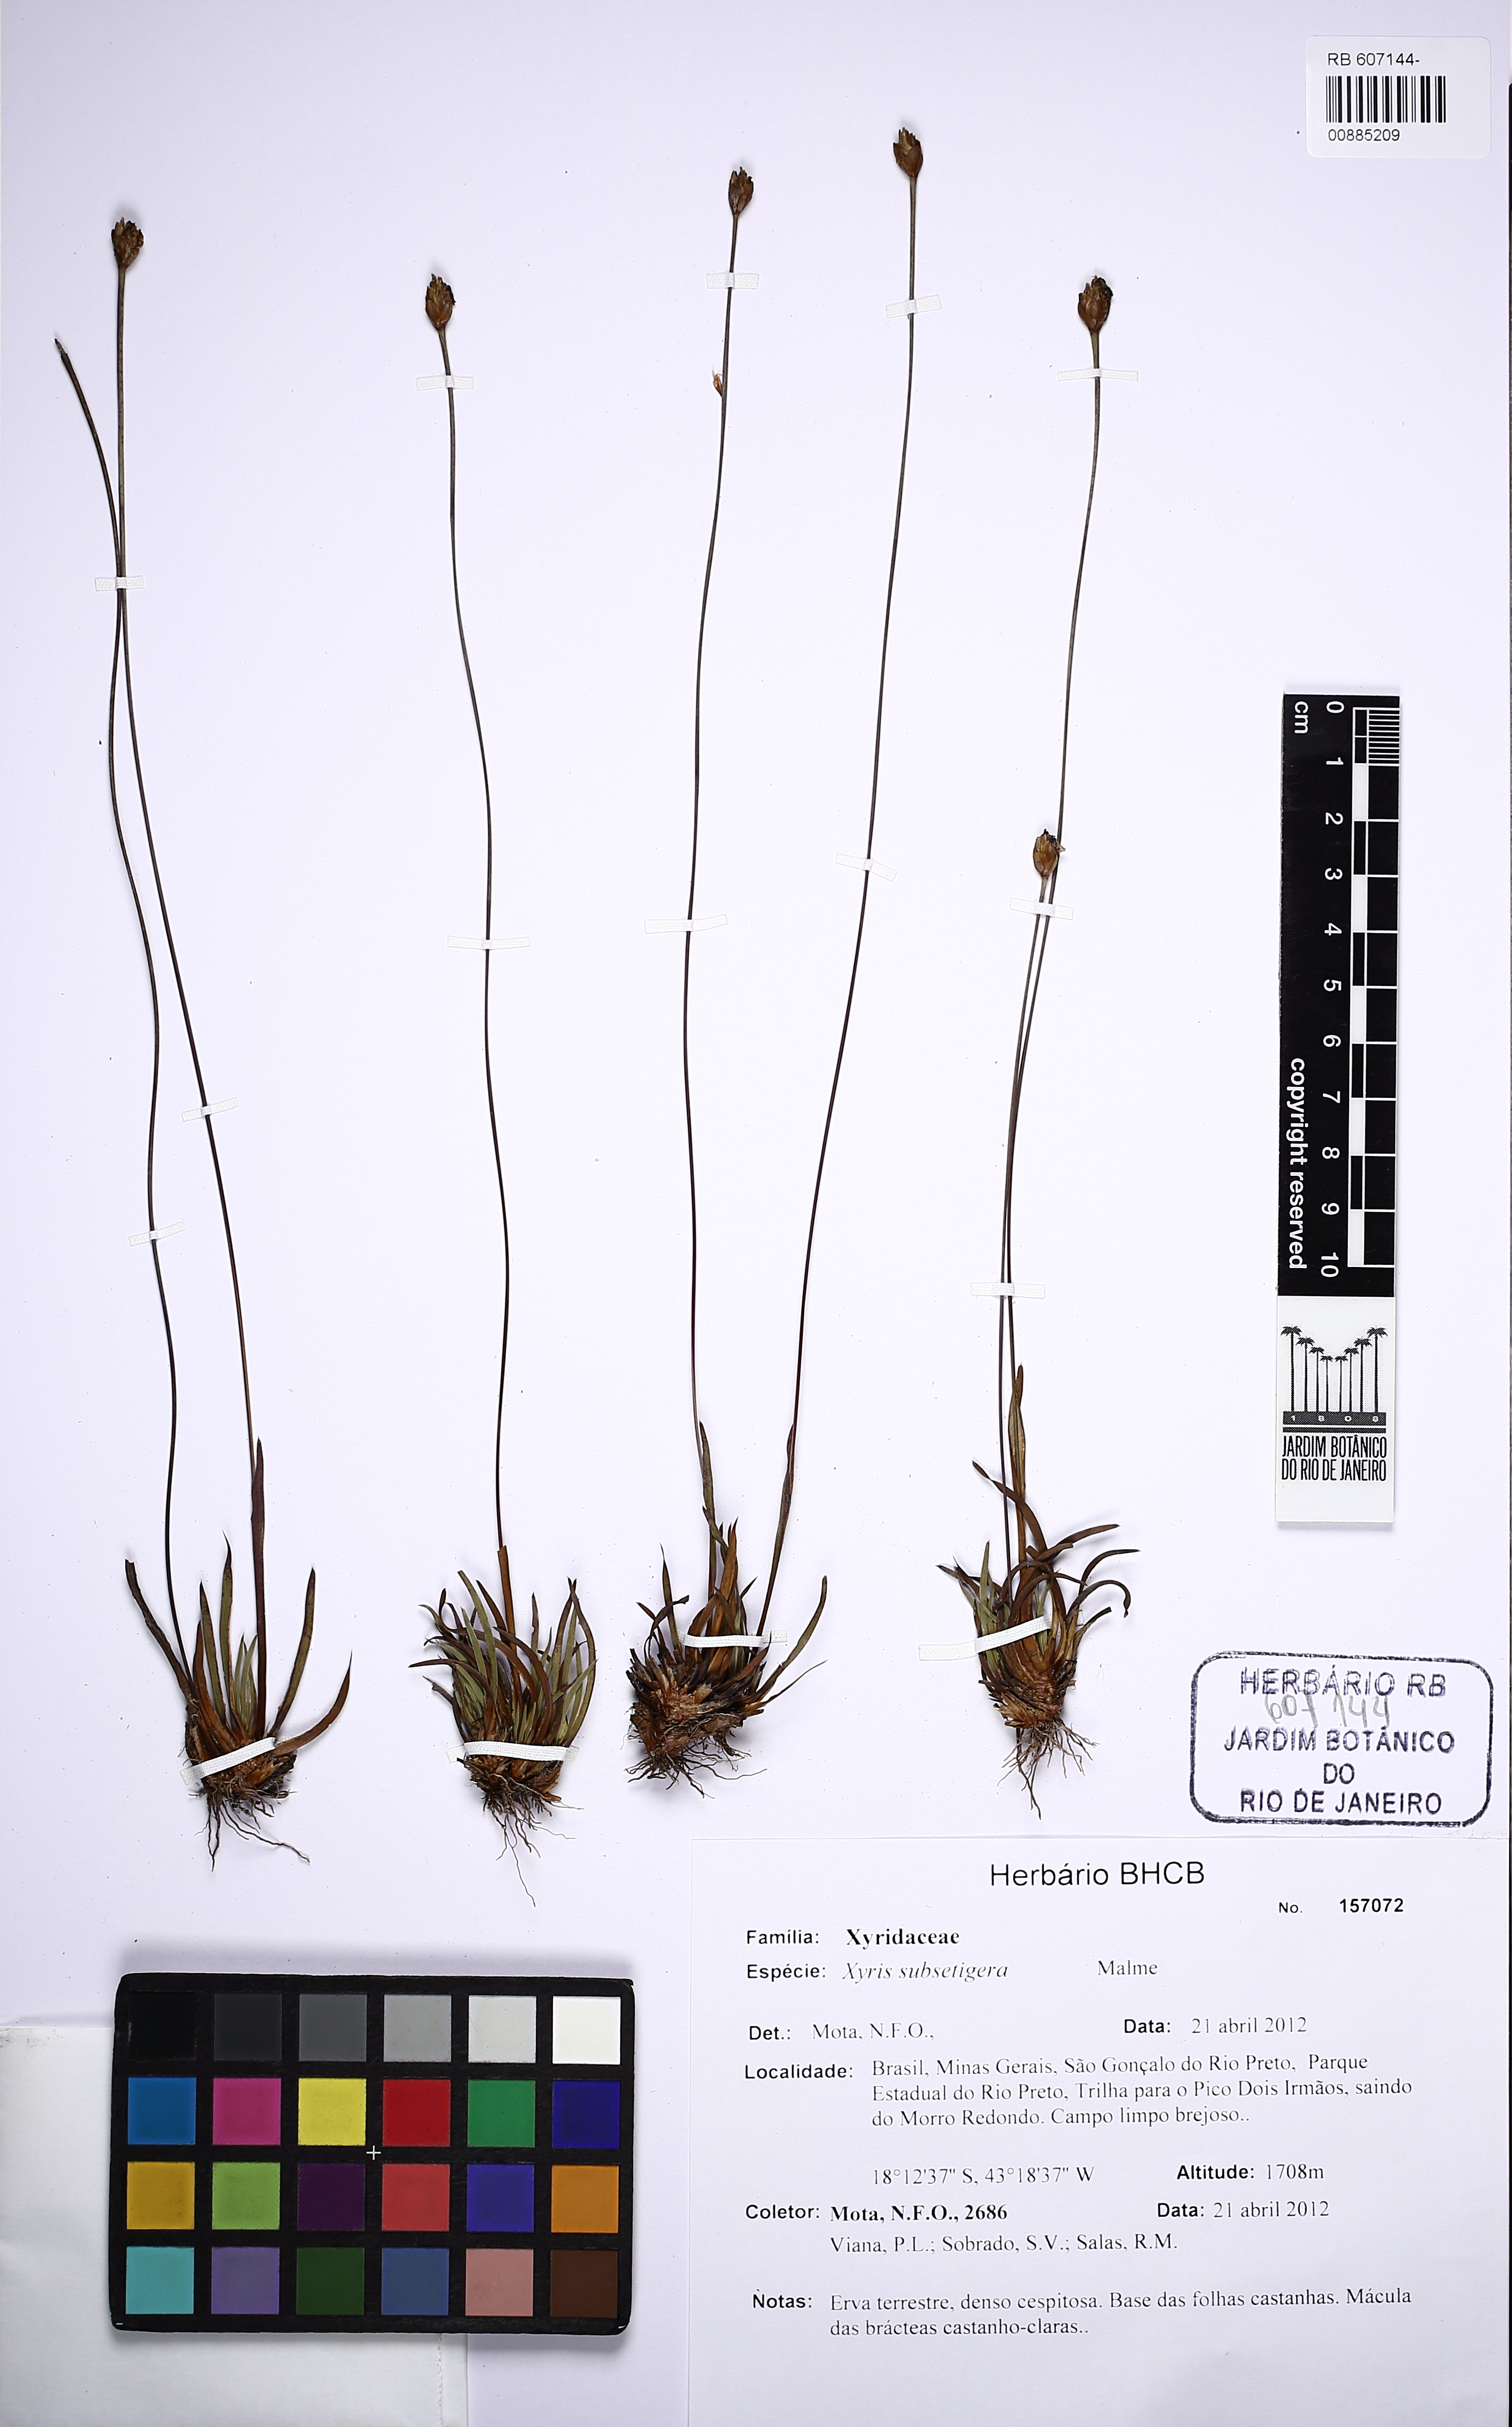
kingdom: Plantae
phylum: Tracheophyta
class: Liliopsida
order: Poales
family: Xyridaceae
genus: Xyris
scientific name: Xyris subsetigera
